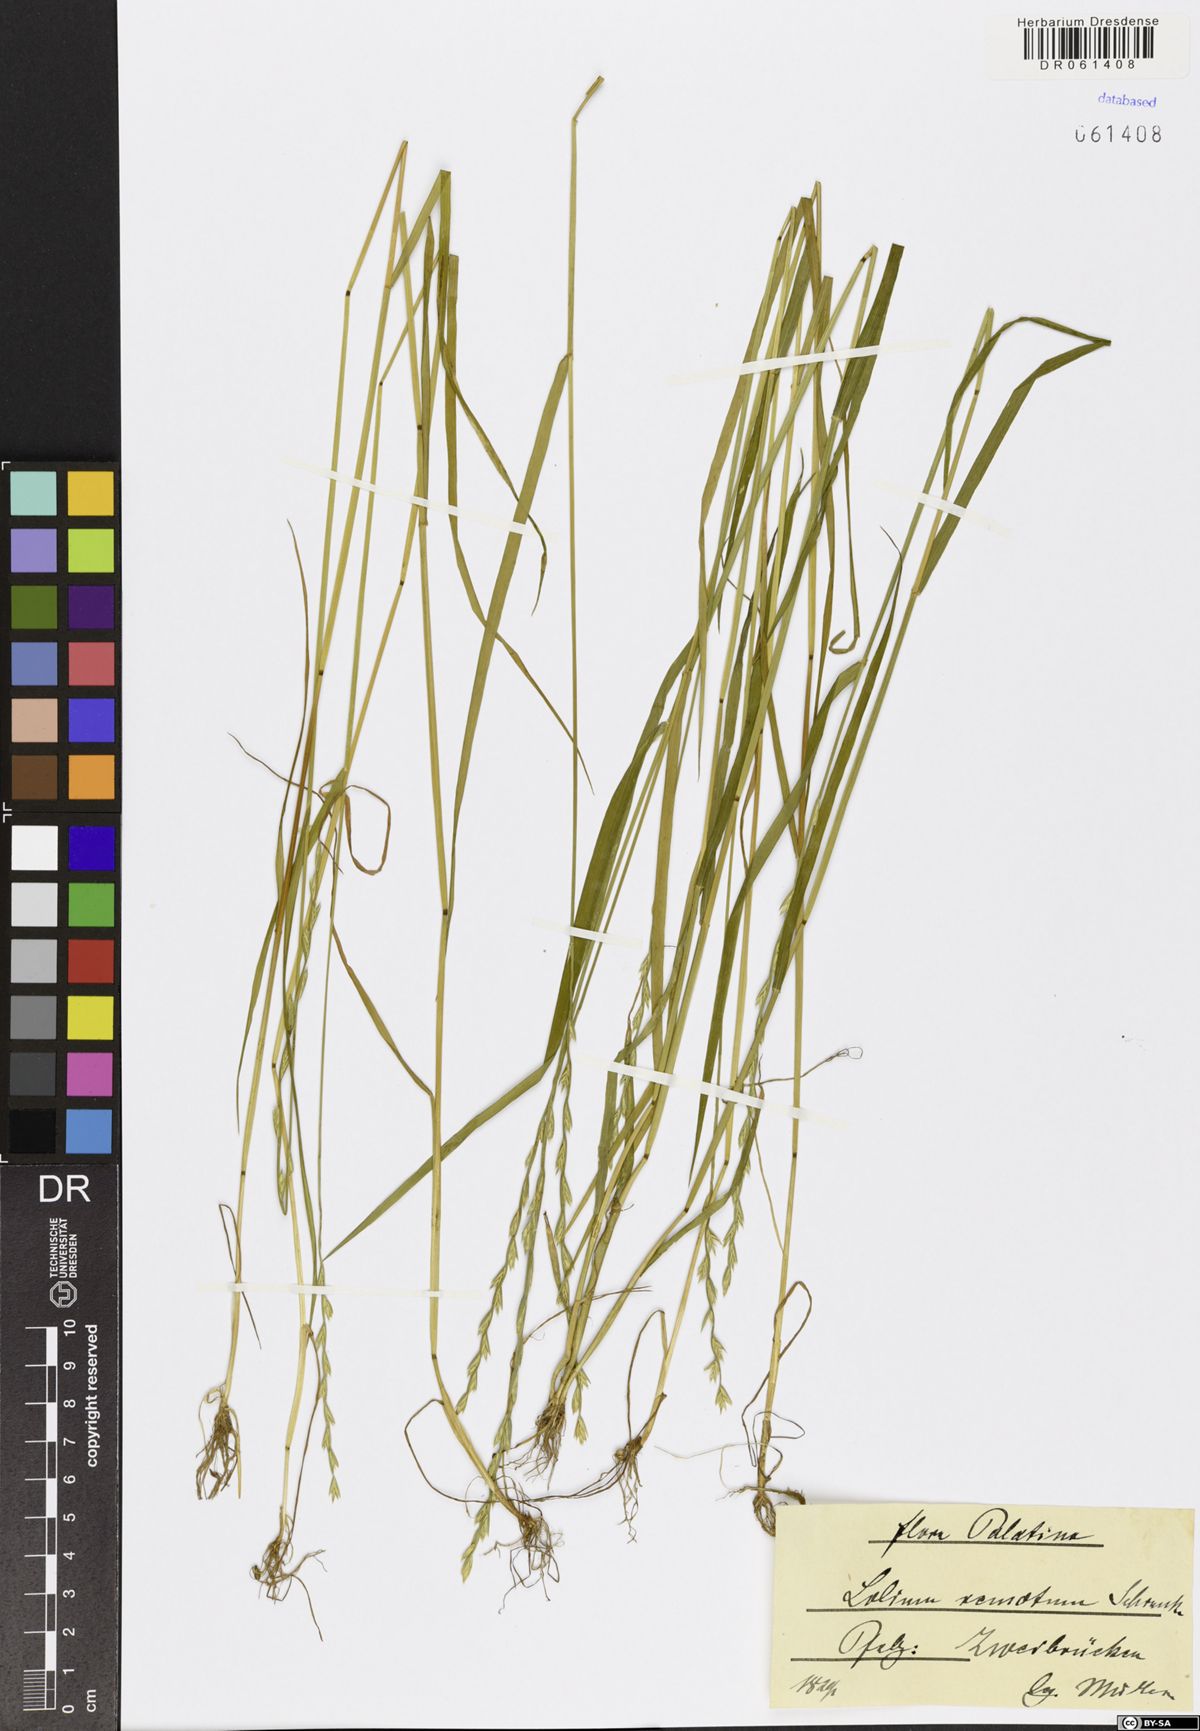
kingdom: Plantae
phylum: Tracheophyta
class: Liliopsida
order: Poales
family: Poaceae
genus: Lolium
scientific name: Lolium remotum
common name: Flaxfield rye-grass
